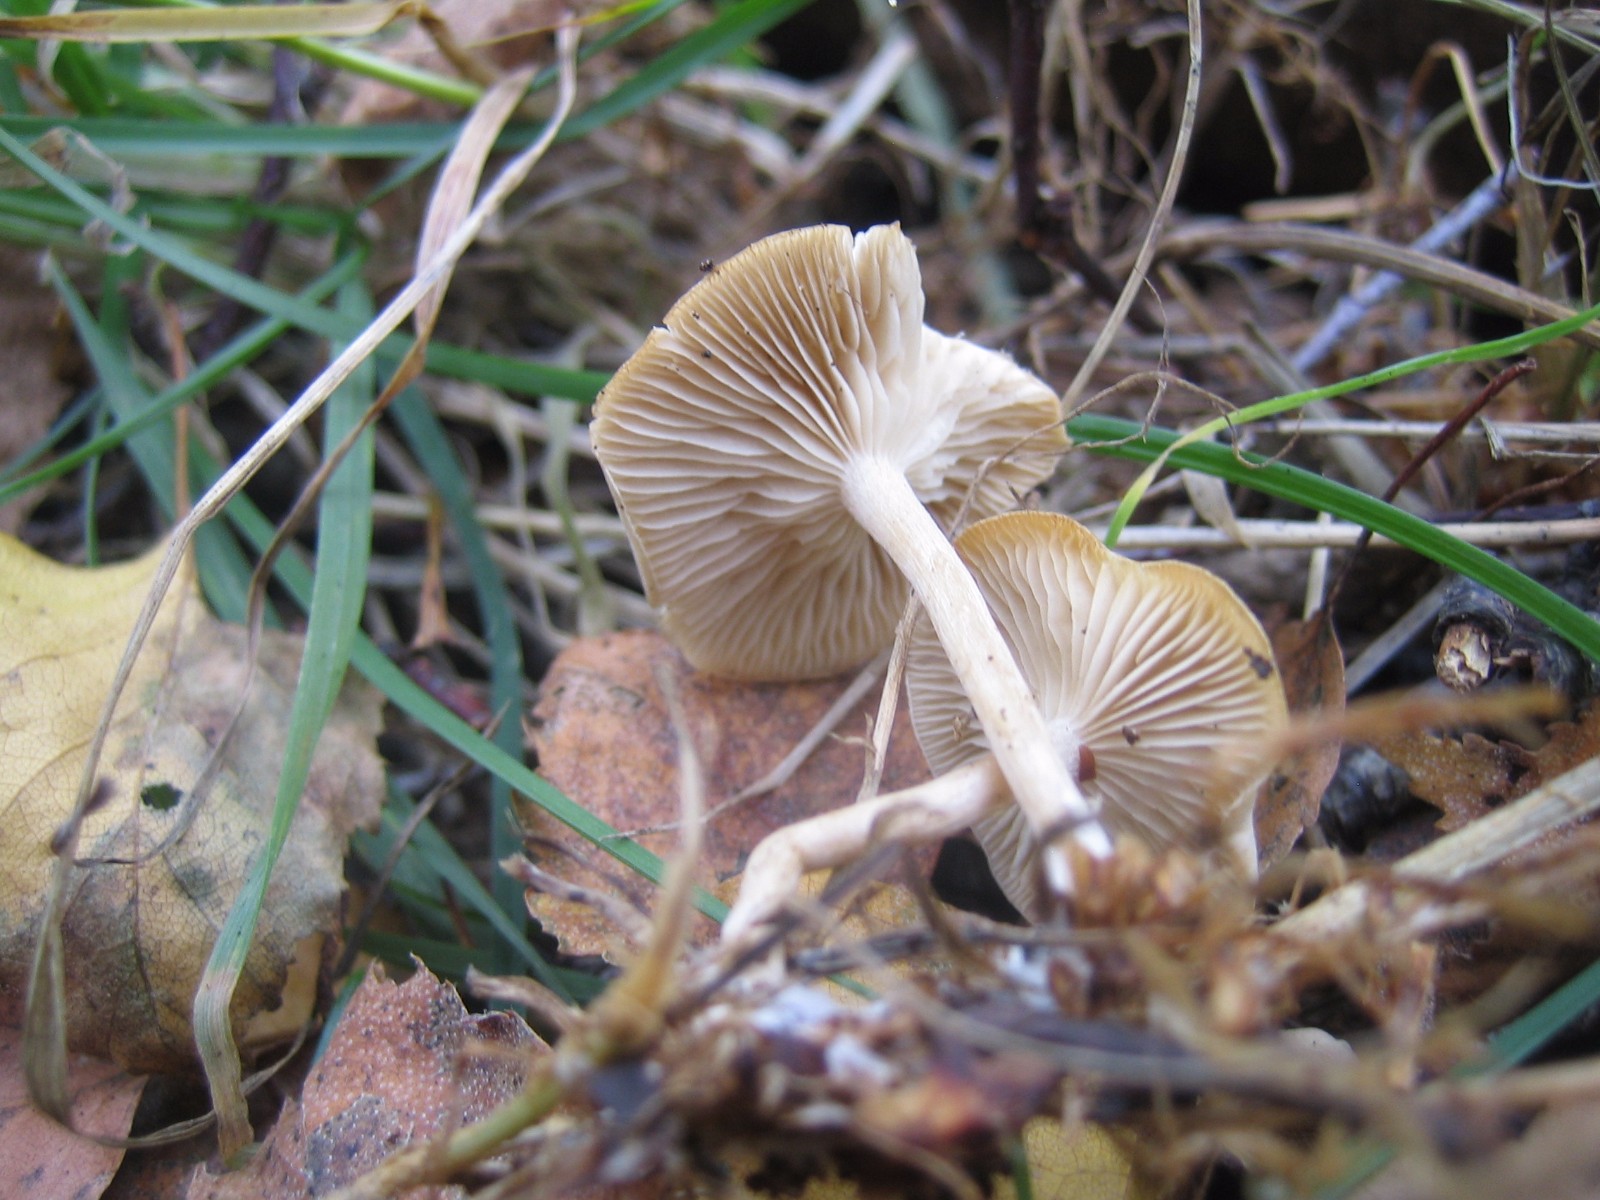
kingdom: Fungi
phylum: Basidiomycota
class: Agaricomycetes
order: Agaricales
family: Tricholomataceae
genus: Clitocybe
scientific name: Clitocybe
